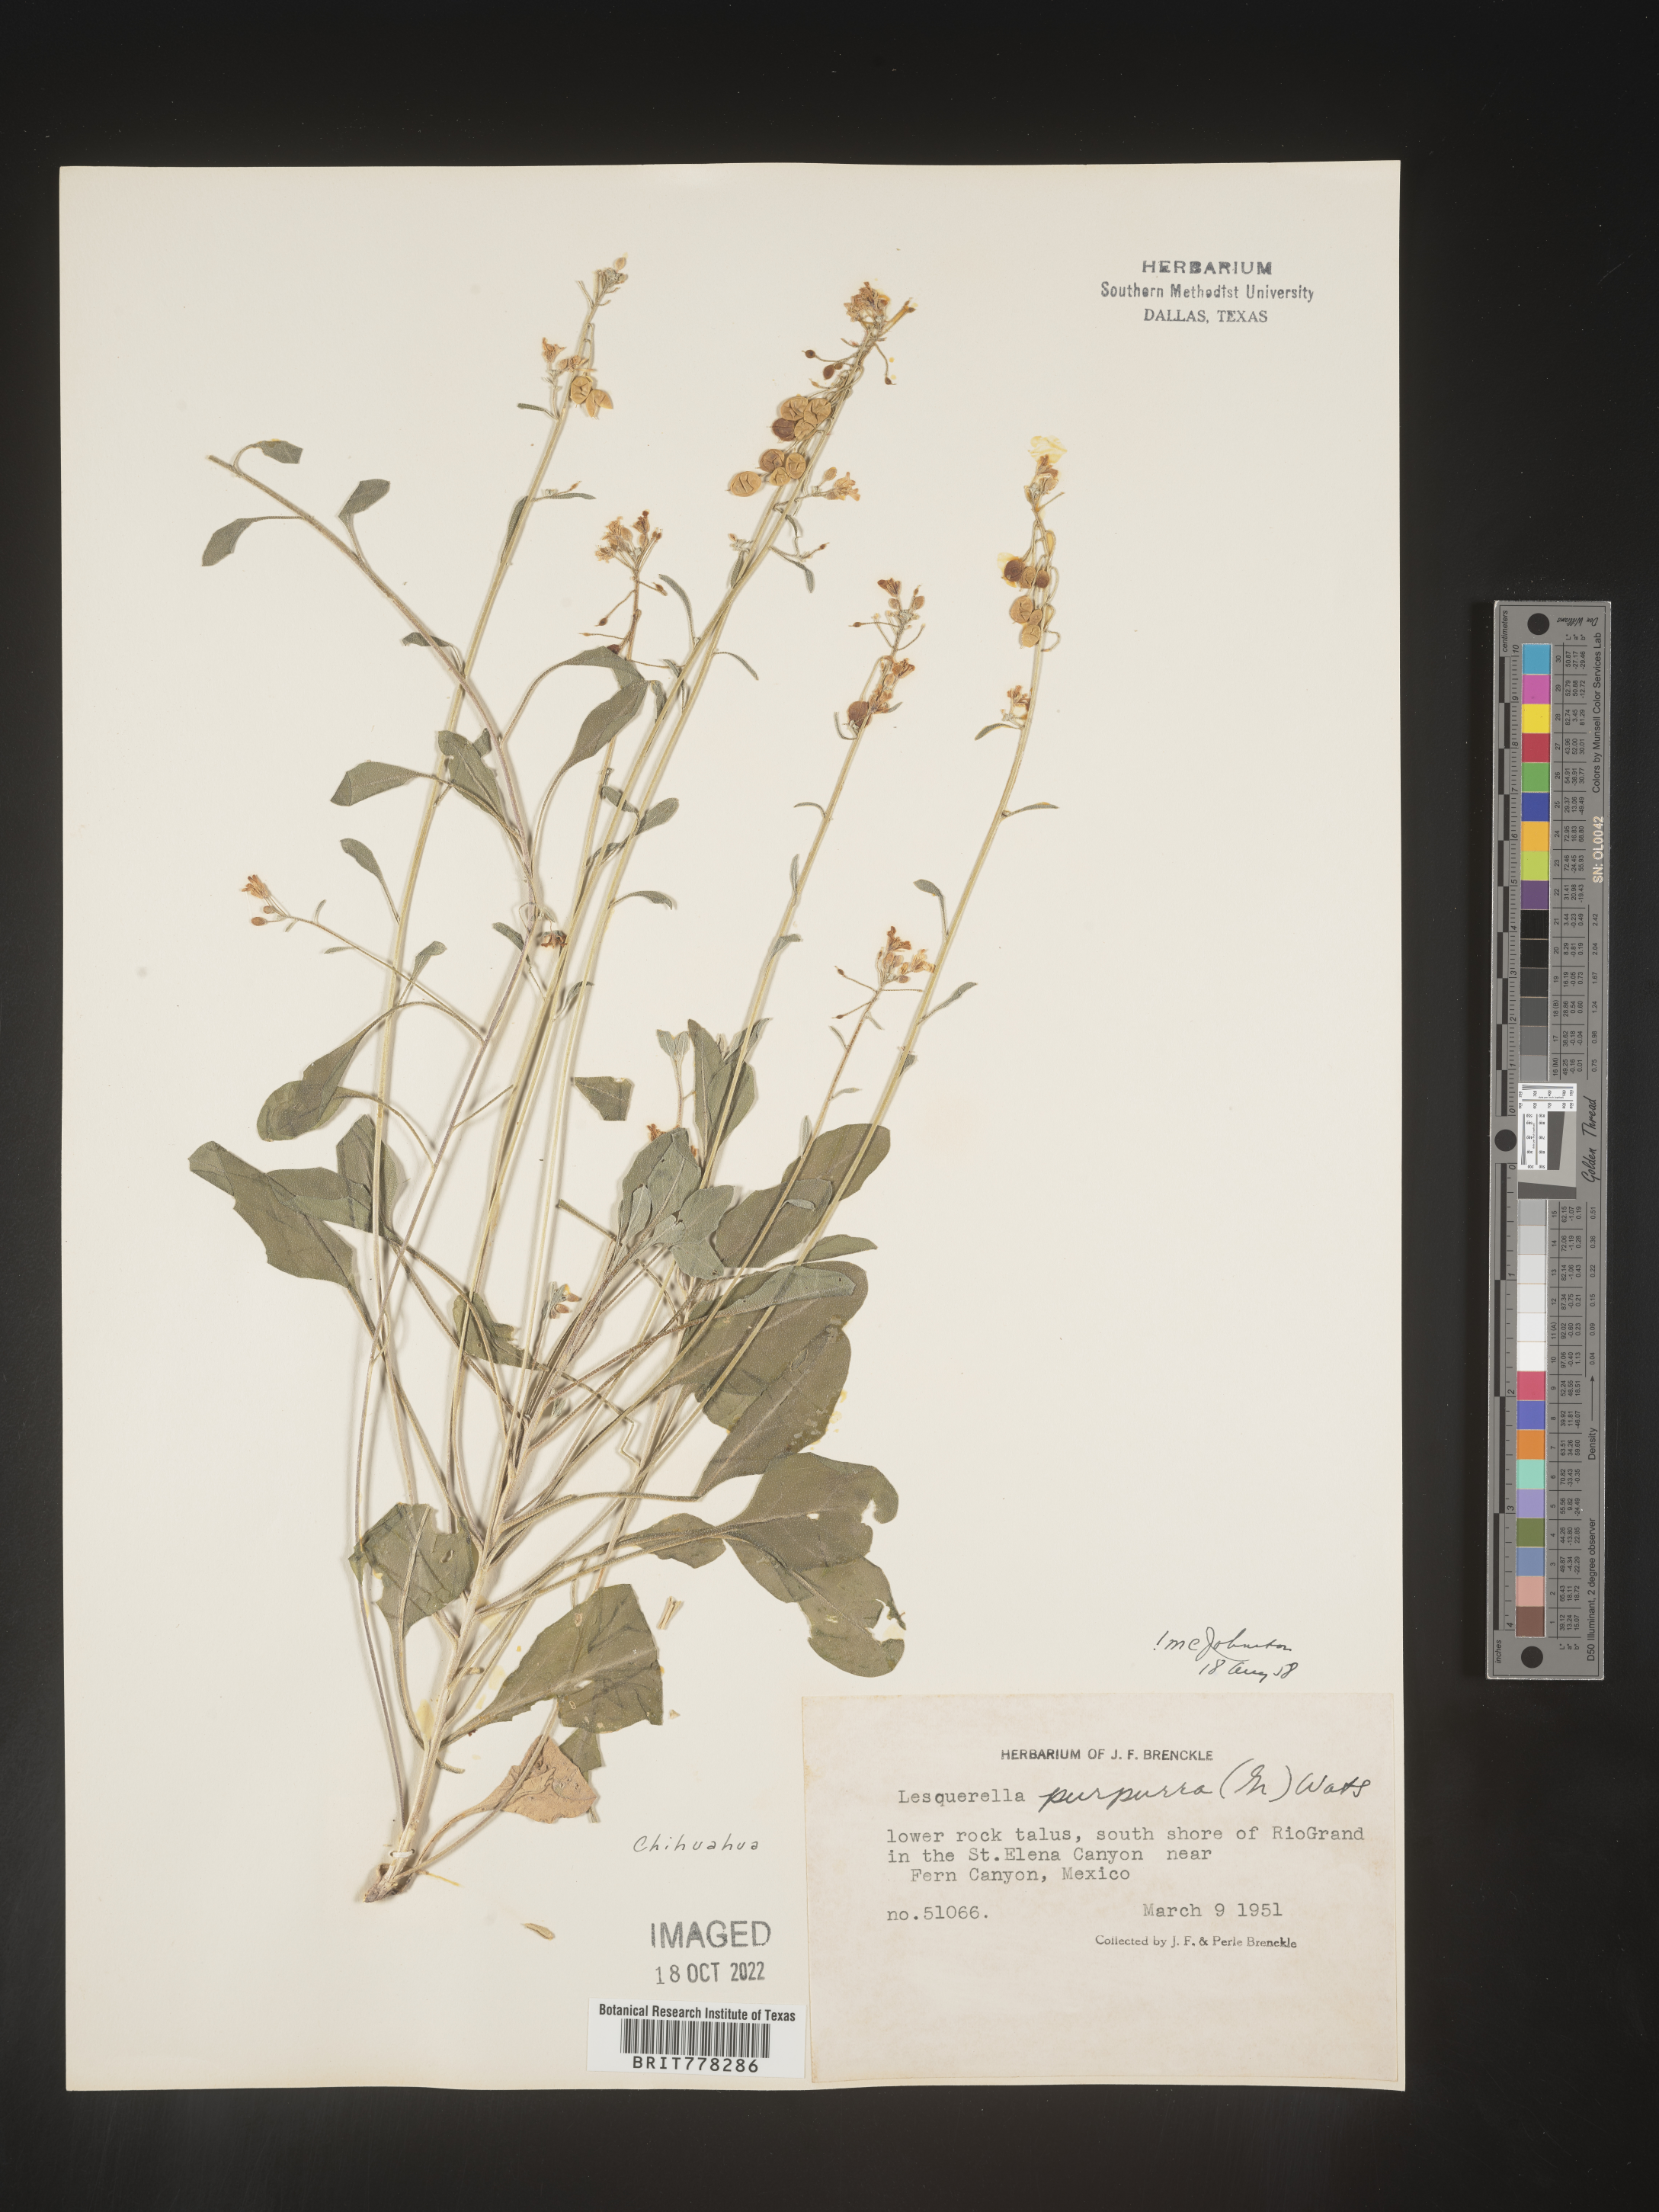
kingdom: Chromista
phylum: Cercozoa
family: Psammonobiotidae
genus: Lesquerella
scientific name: Lesquerella
